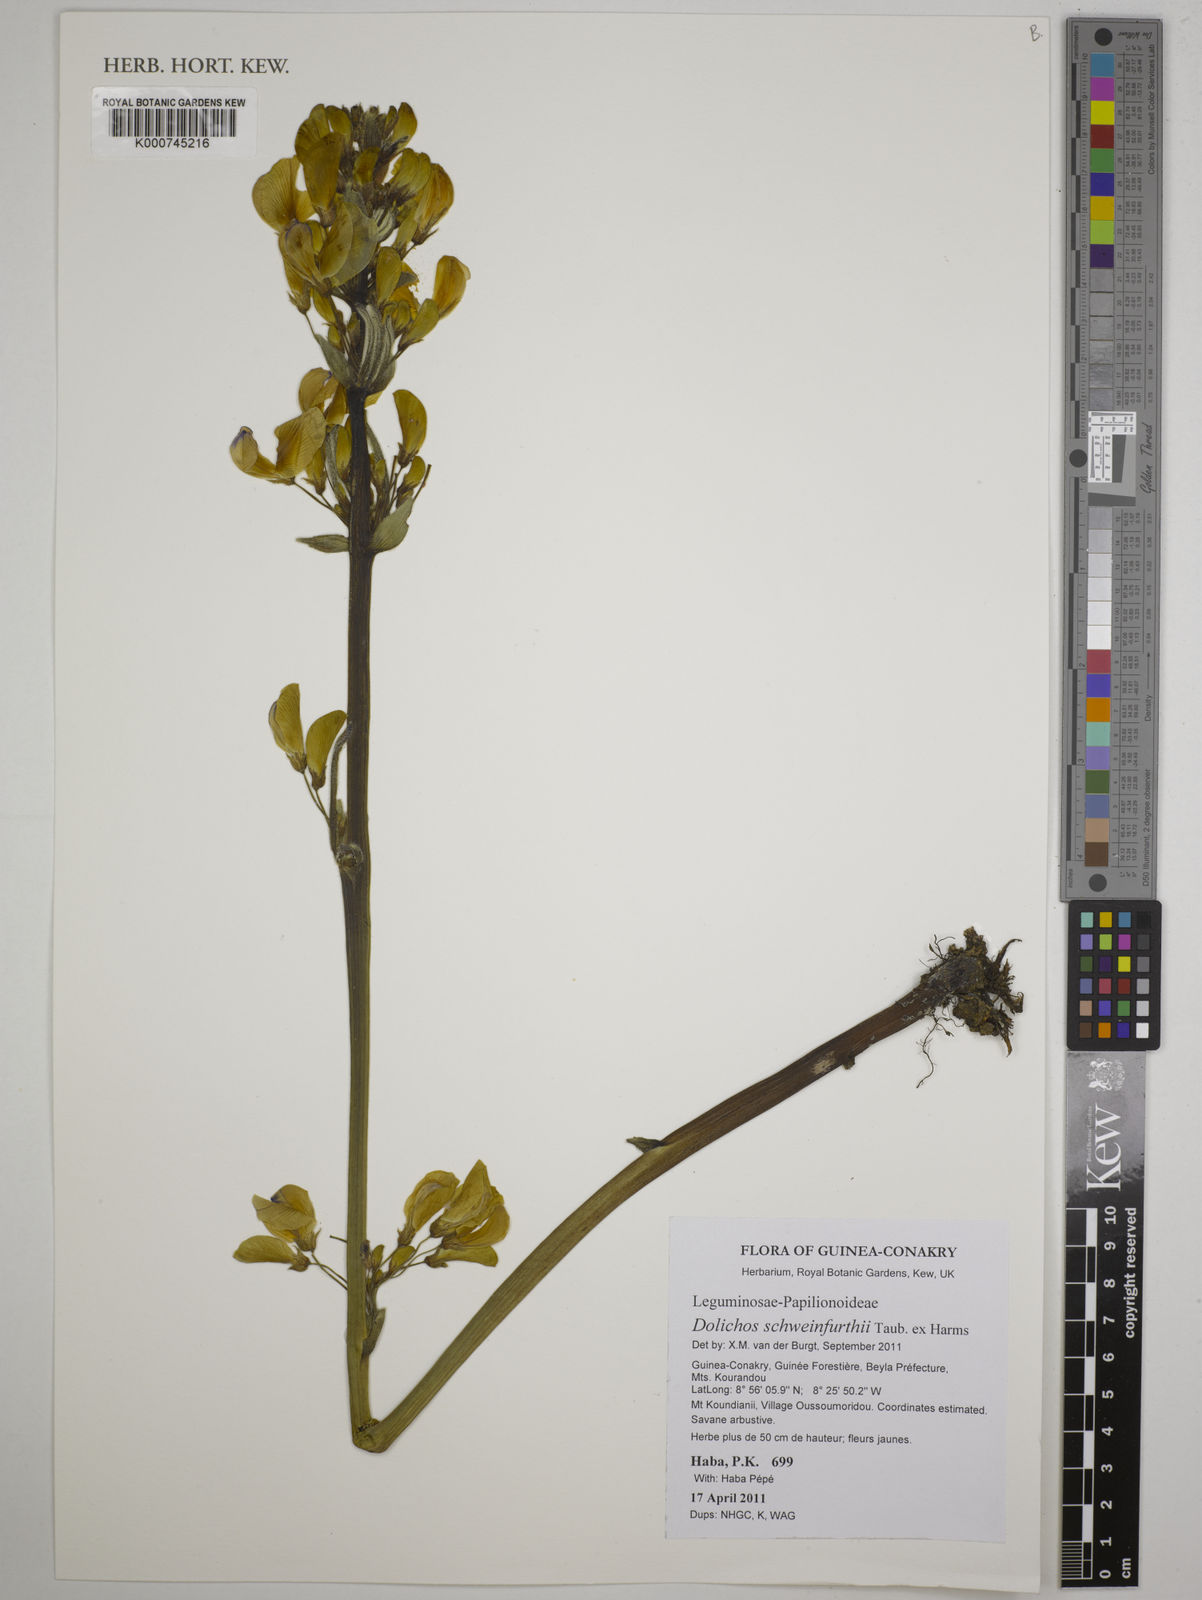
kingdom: Plantae
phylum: Tracheophyta
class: Magnoliopsida
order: Fabales
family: Fabaceae
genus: Dolichos
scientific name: Dolichos schweinfurthii
